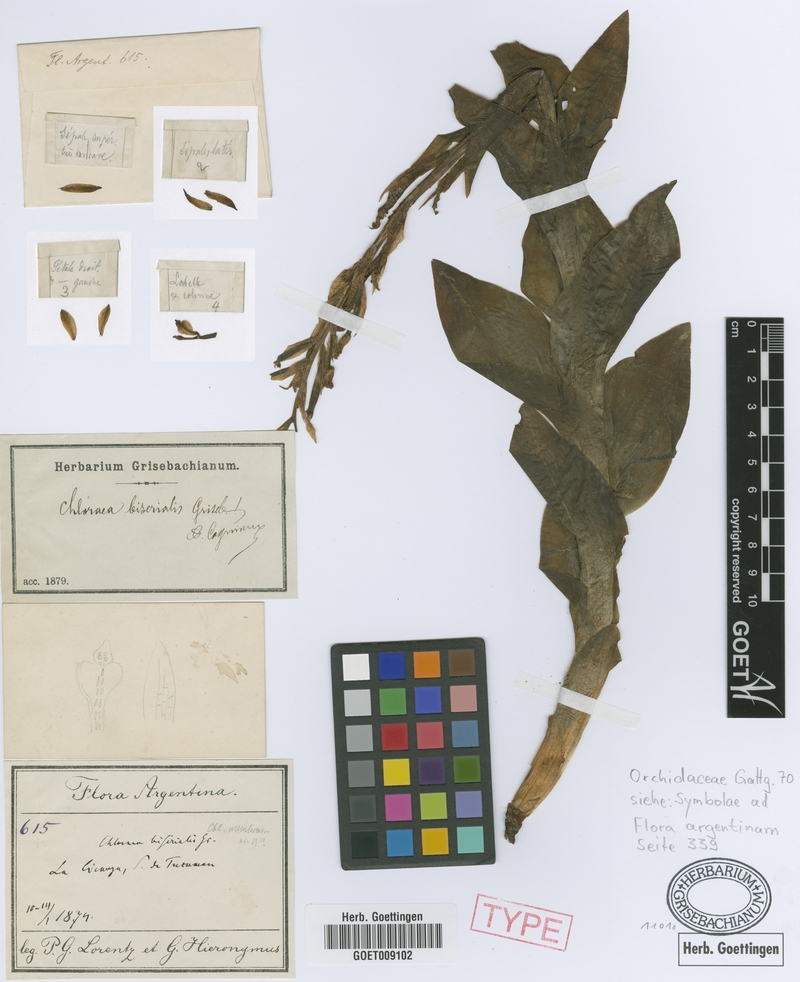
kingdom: Plantae
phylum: Tracheophyta
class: Liliopsida
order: Asparagales
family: Orchidaceae
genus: Chloraea
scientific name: Chloraea biserialis
